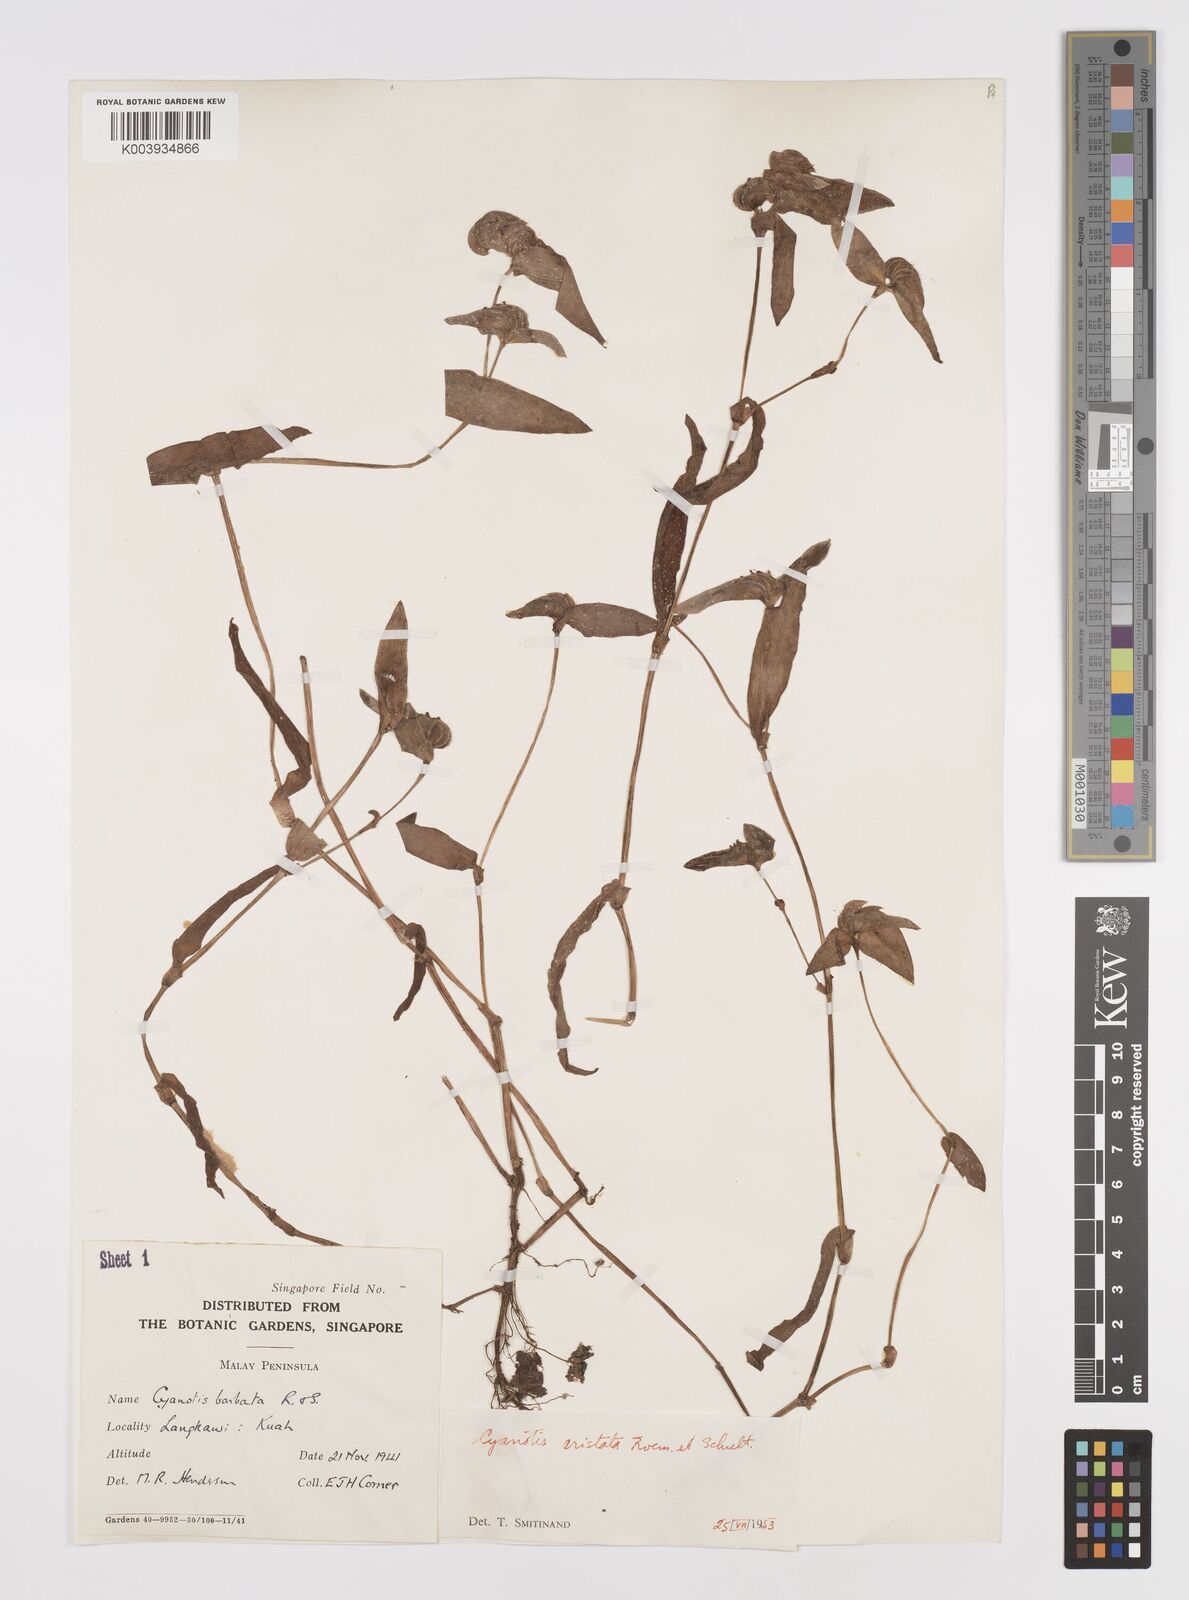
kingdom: Plantae
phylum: Tracheophyta
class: Liliopsida
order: Commelinales
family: Commelinaceae
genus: Cyanotis
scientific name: Cyanotis cristata
